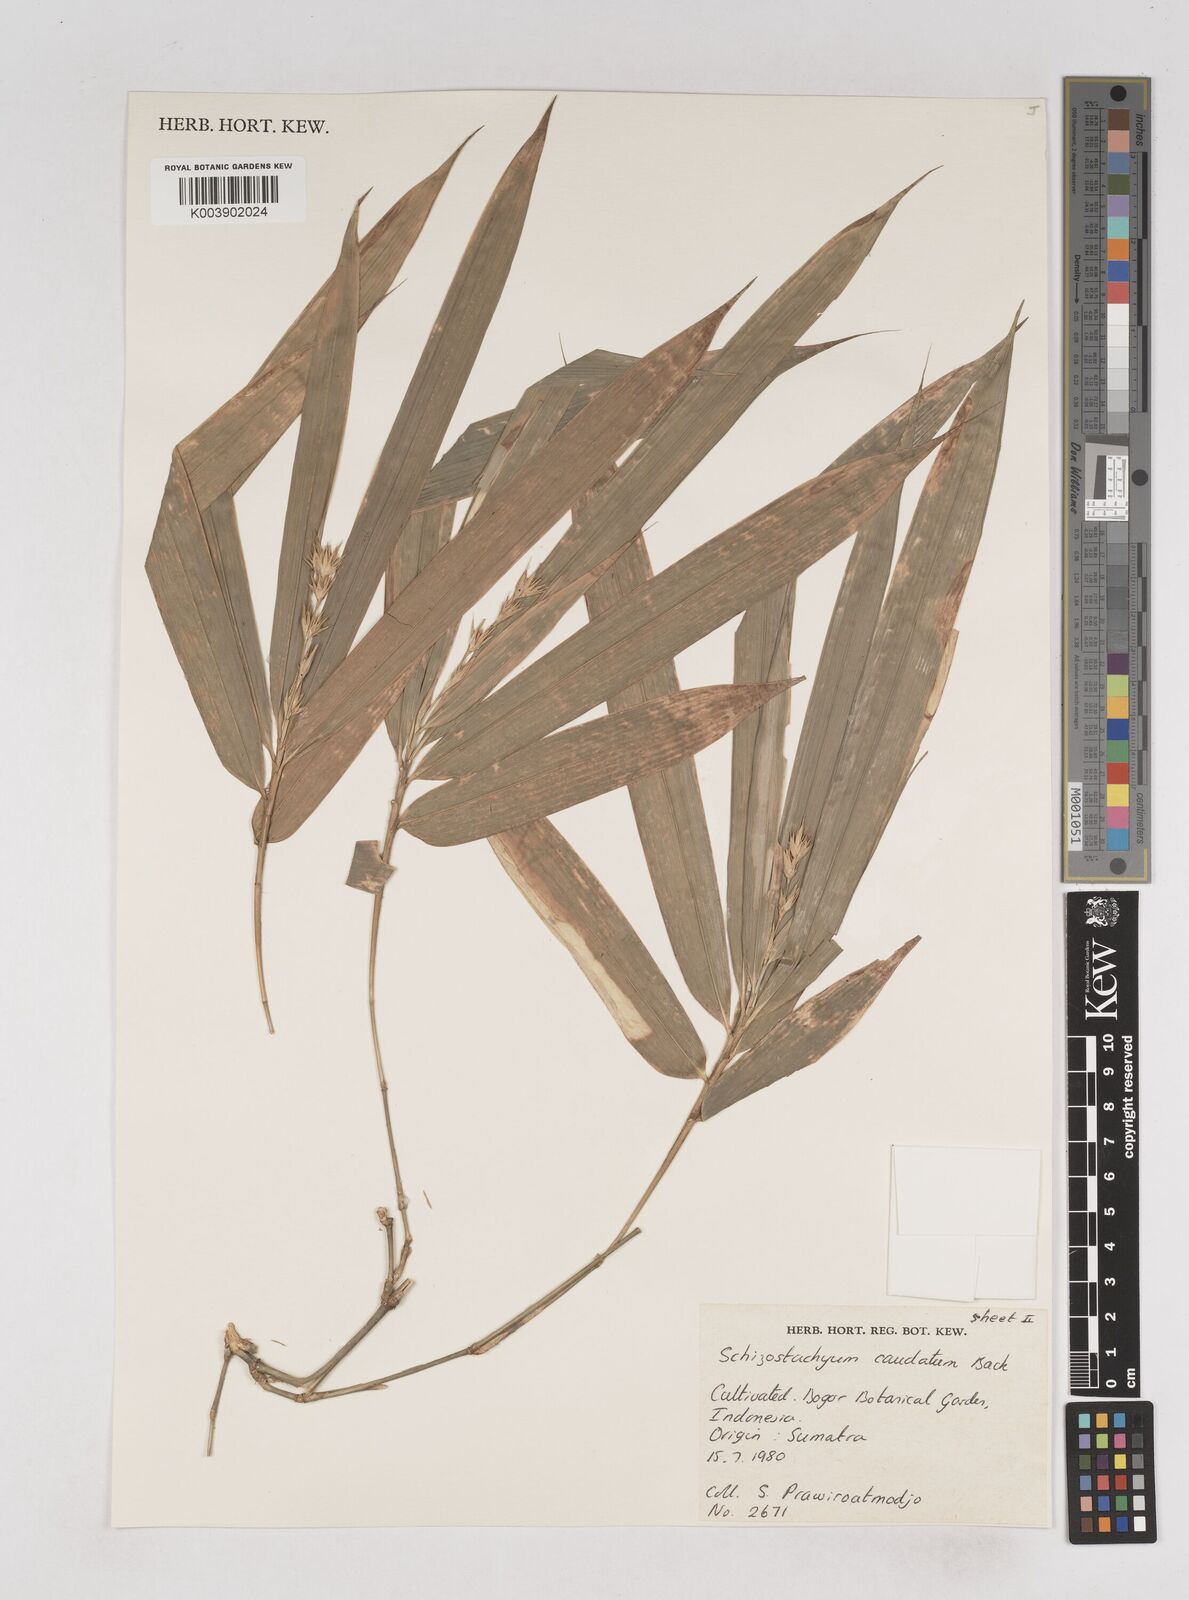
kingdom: Plantae
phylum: Tracheophyta
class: Liliopsida
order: Poales
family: Poaceae
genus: Schizostachyum
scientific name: Schizostachyum caudatum
